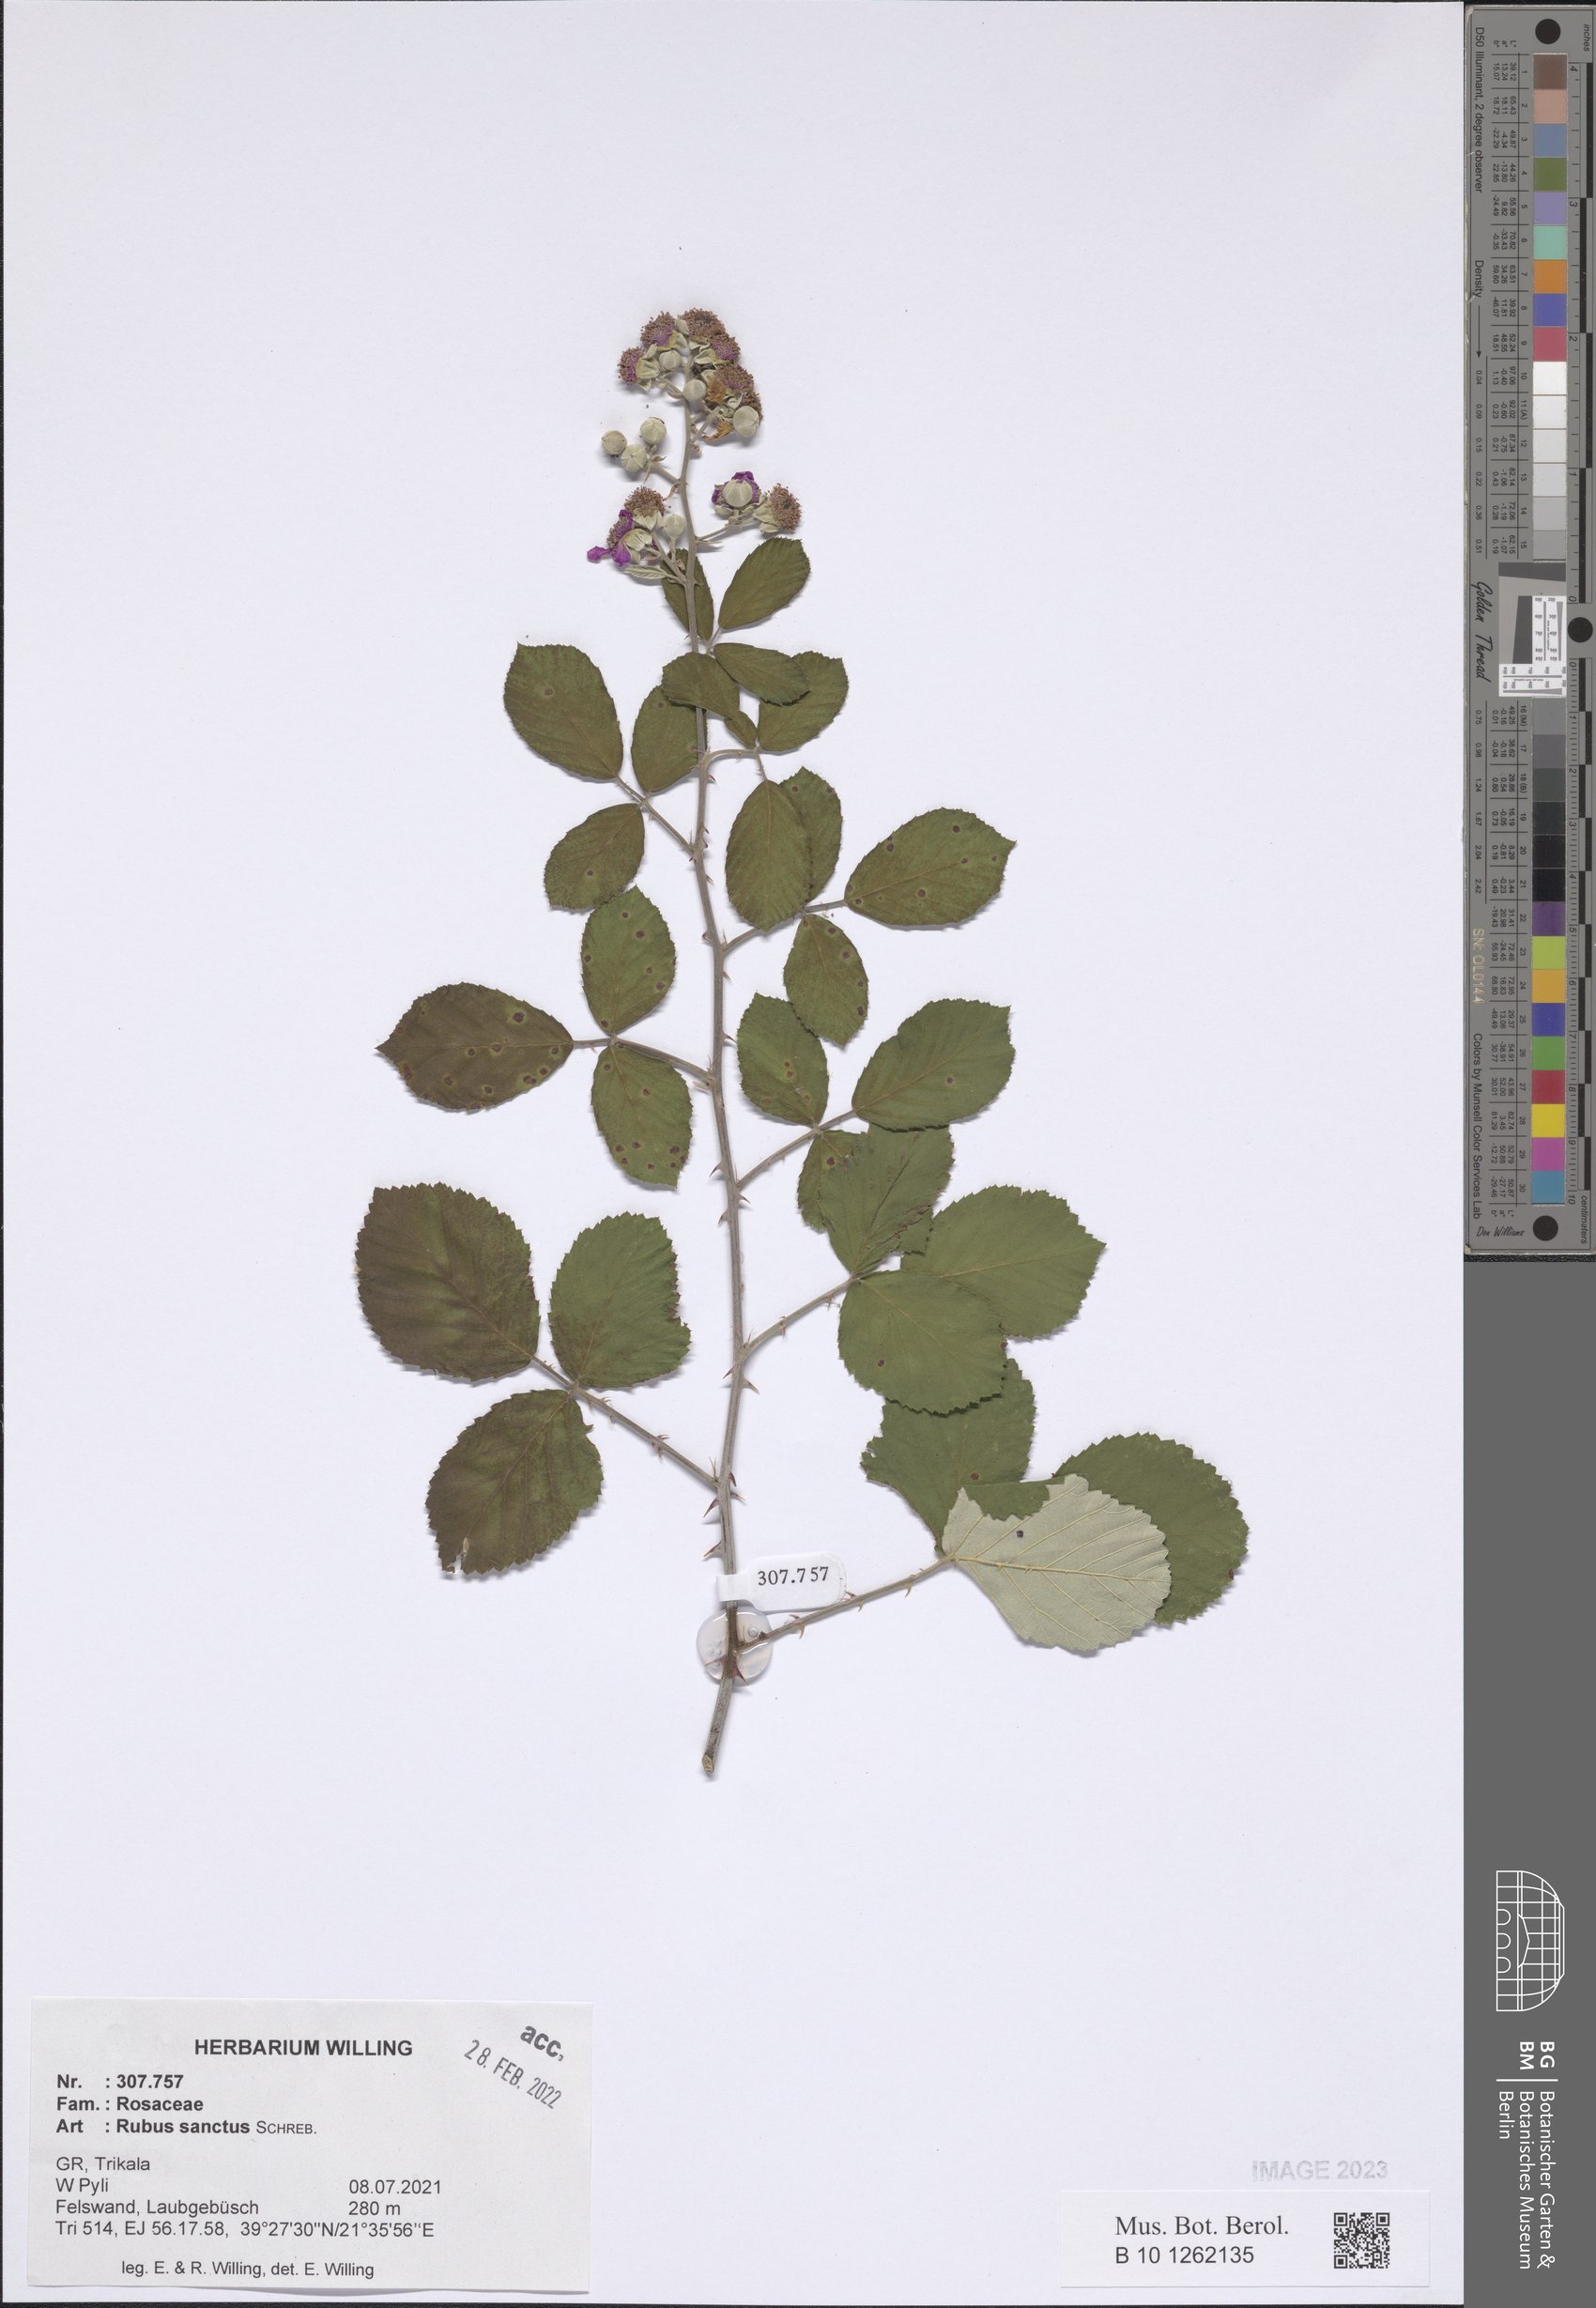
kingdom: Plantae
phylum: Tracheophyta
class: Magnoliopsida
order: Rosales
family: Rosaceae
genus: Rubus
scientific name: Rubus sanctus
